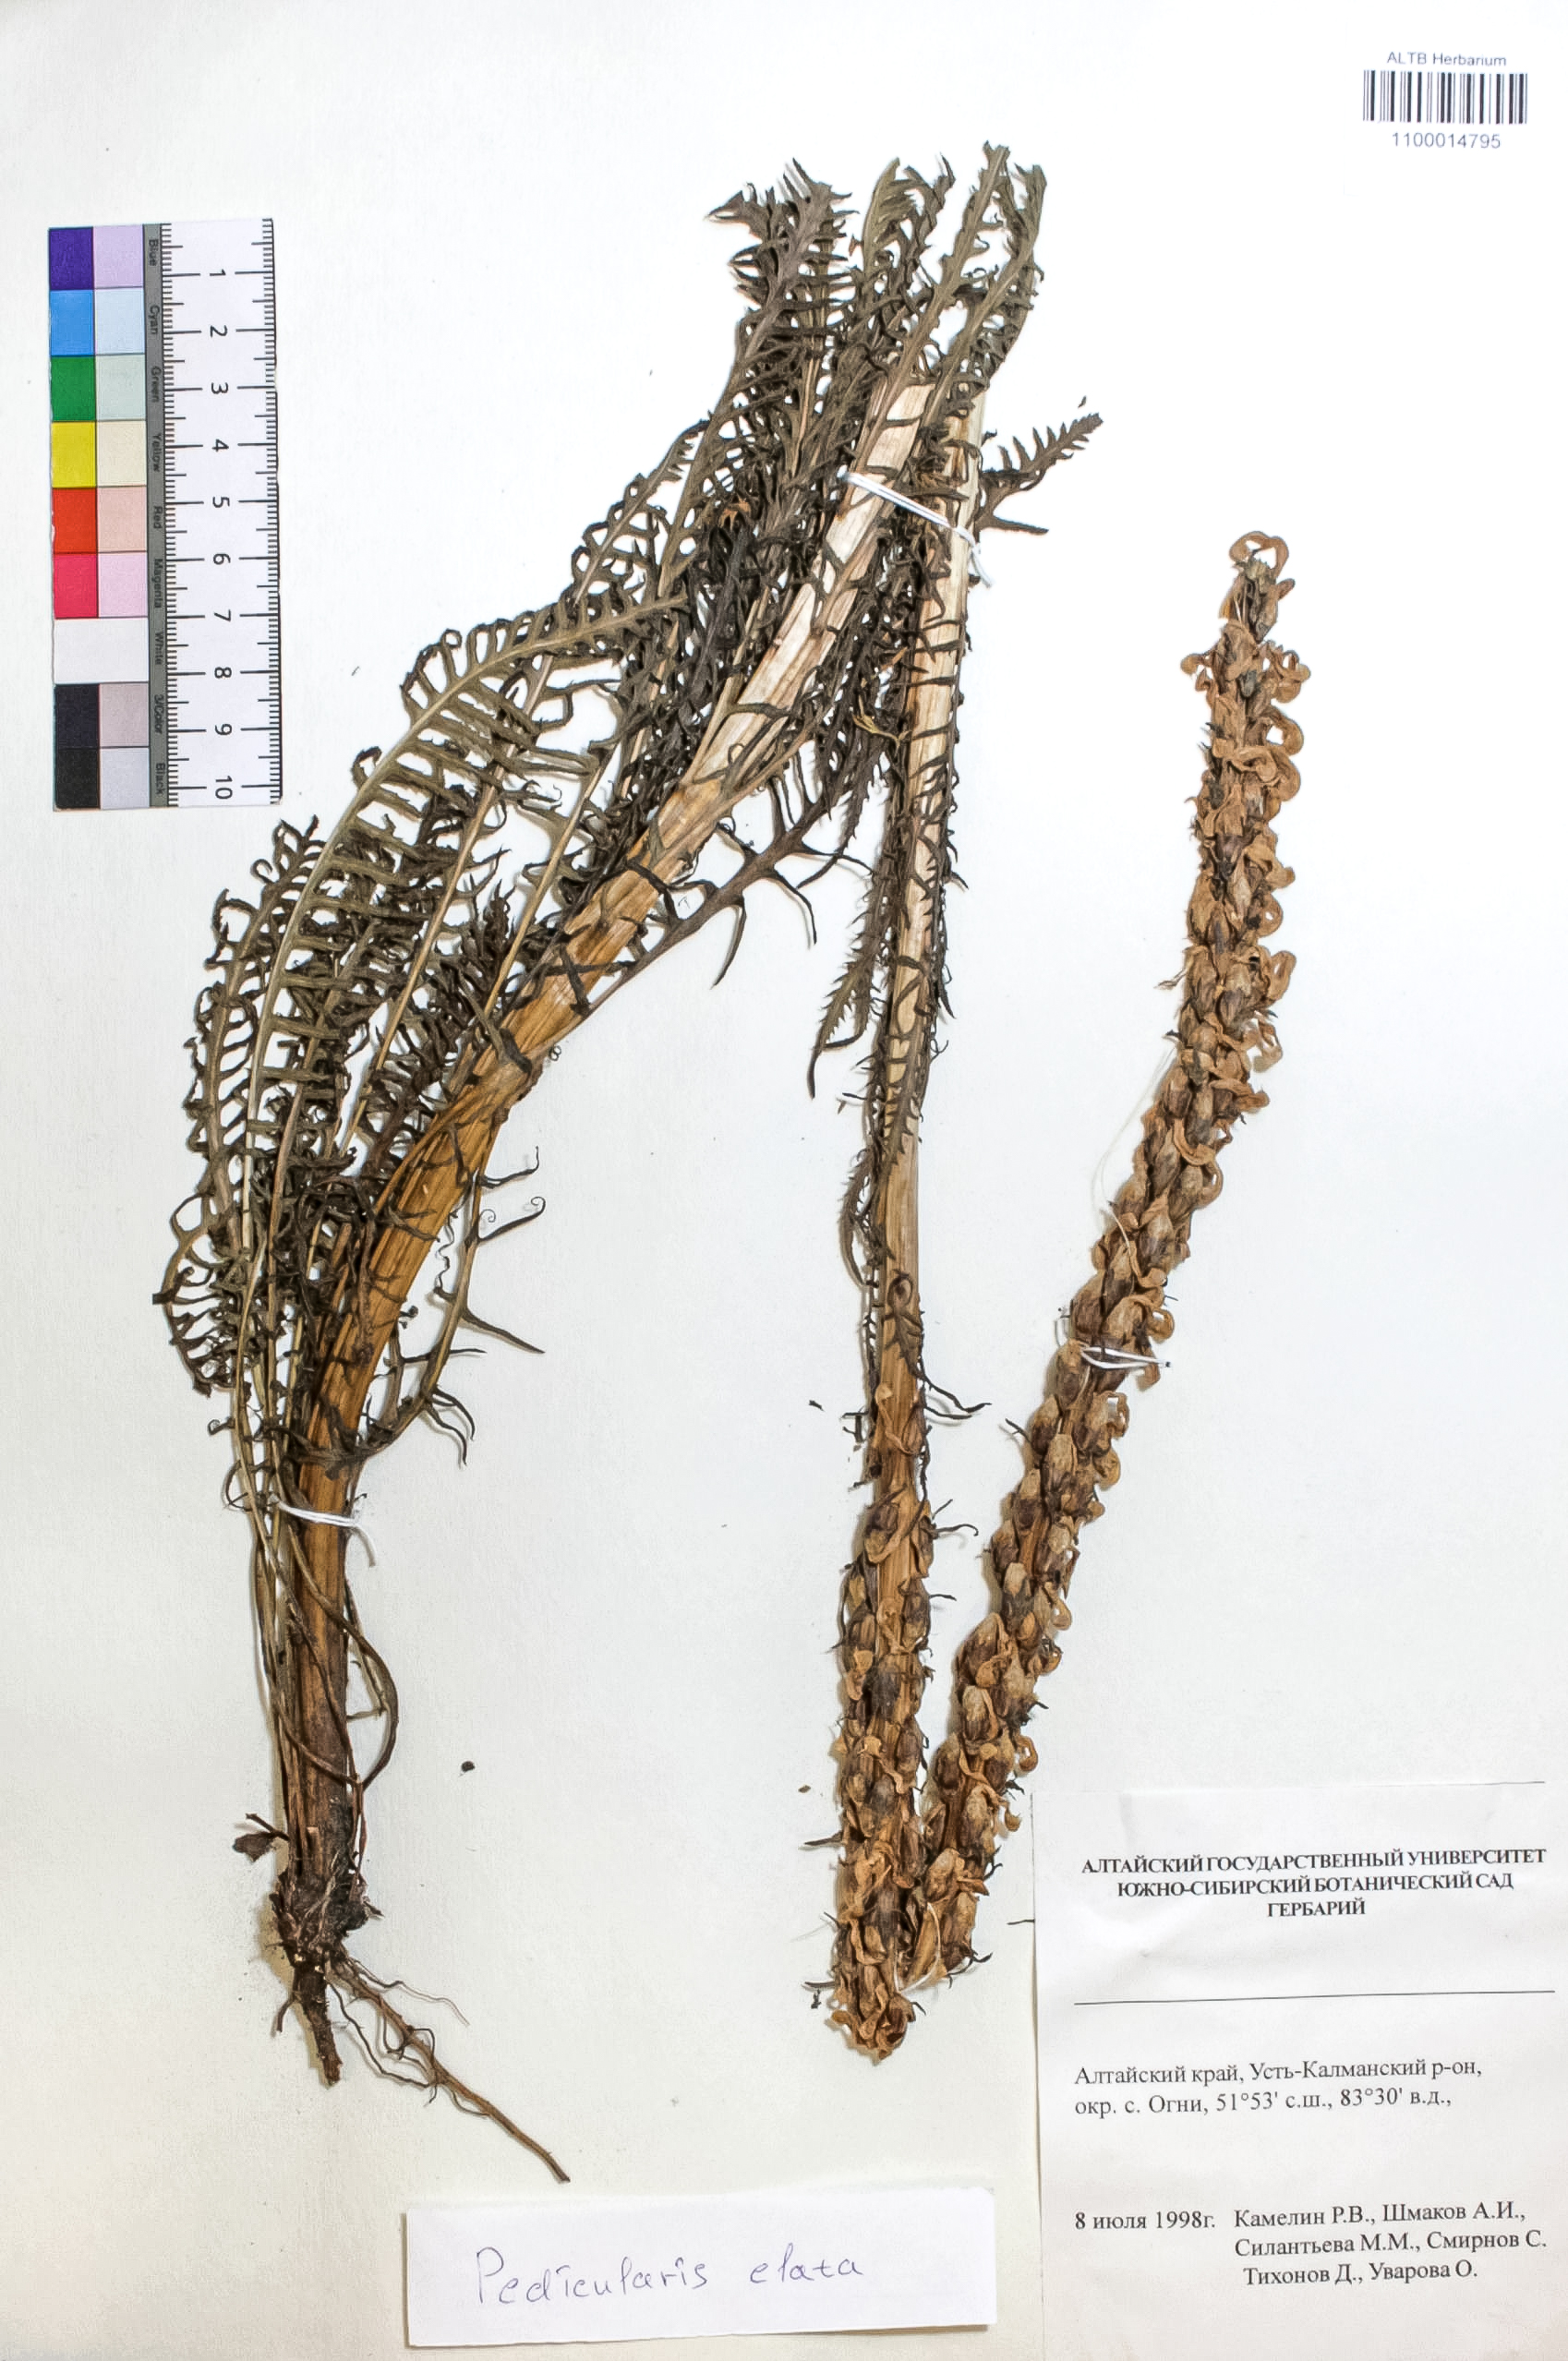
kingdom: Plantae
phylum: Tracheophyta
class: Magnoliopsida
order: Lamiales
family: Orobanchaceae
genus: Pedicularis
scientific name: Pedicularis elata
